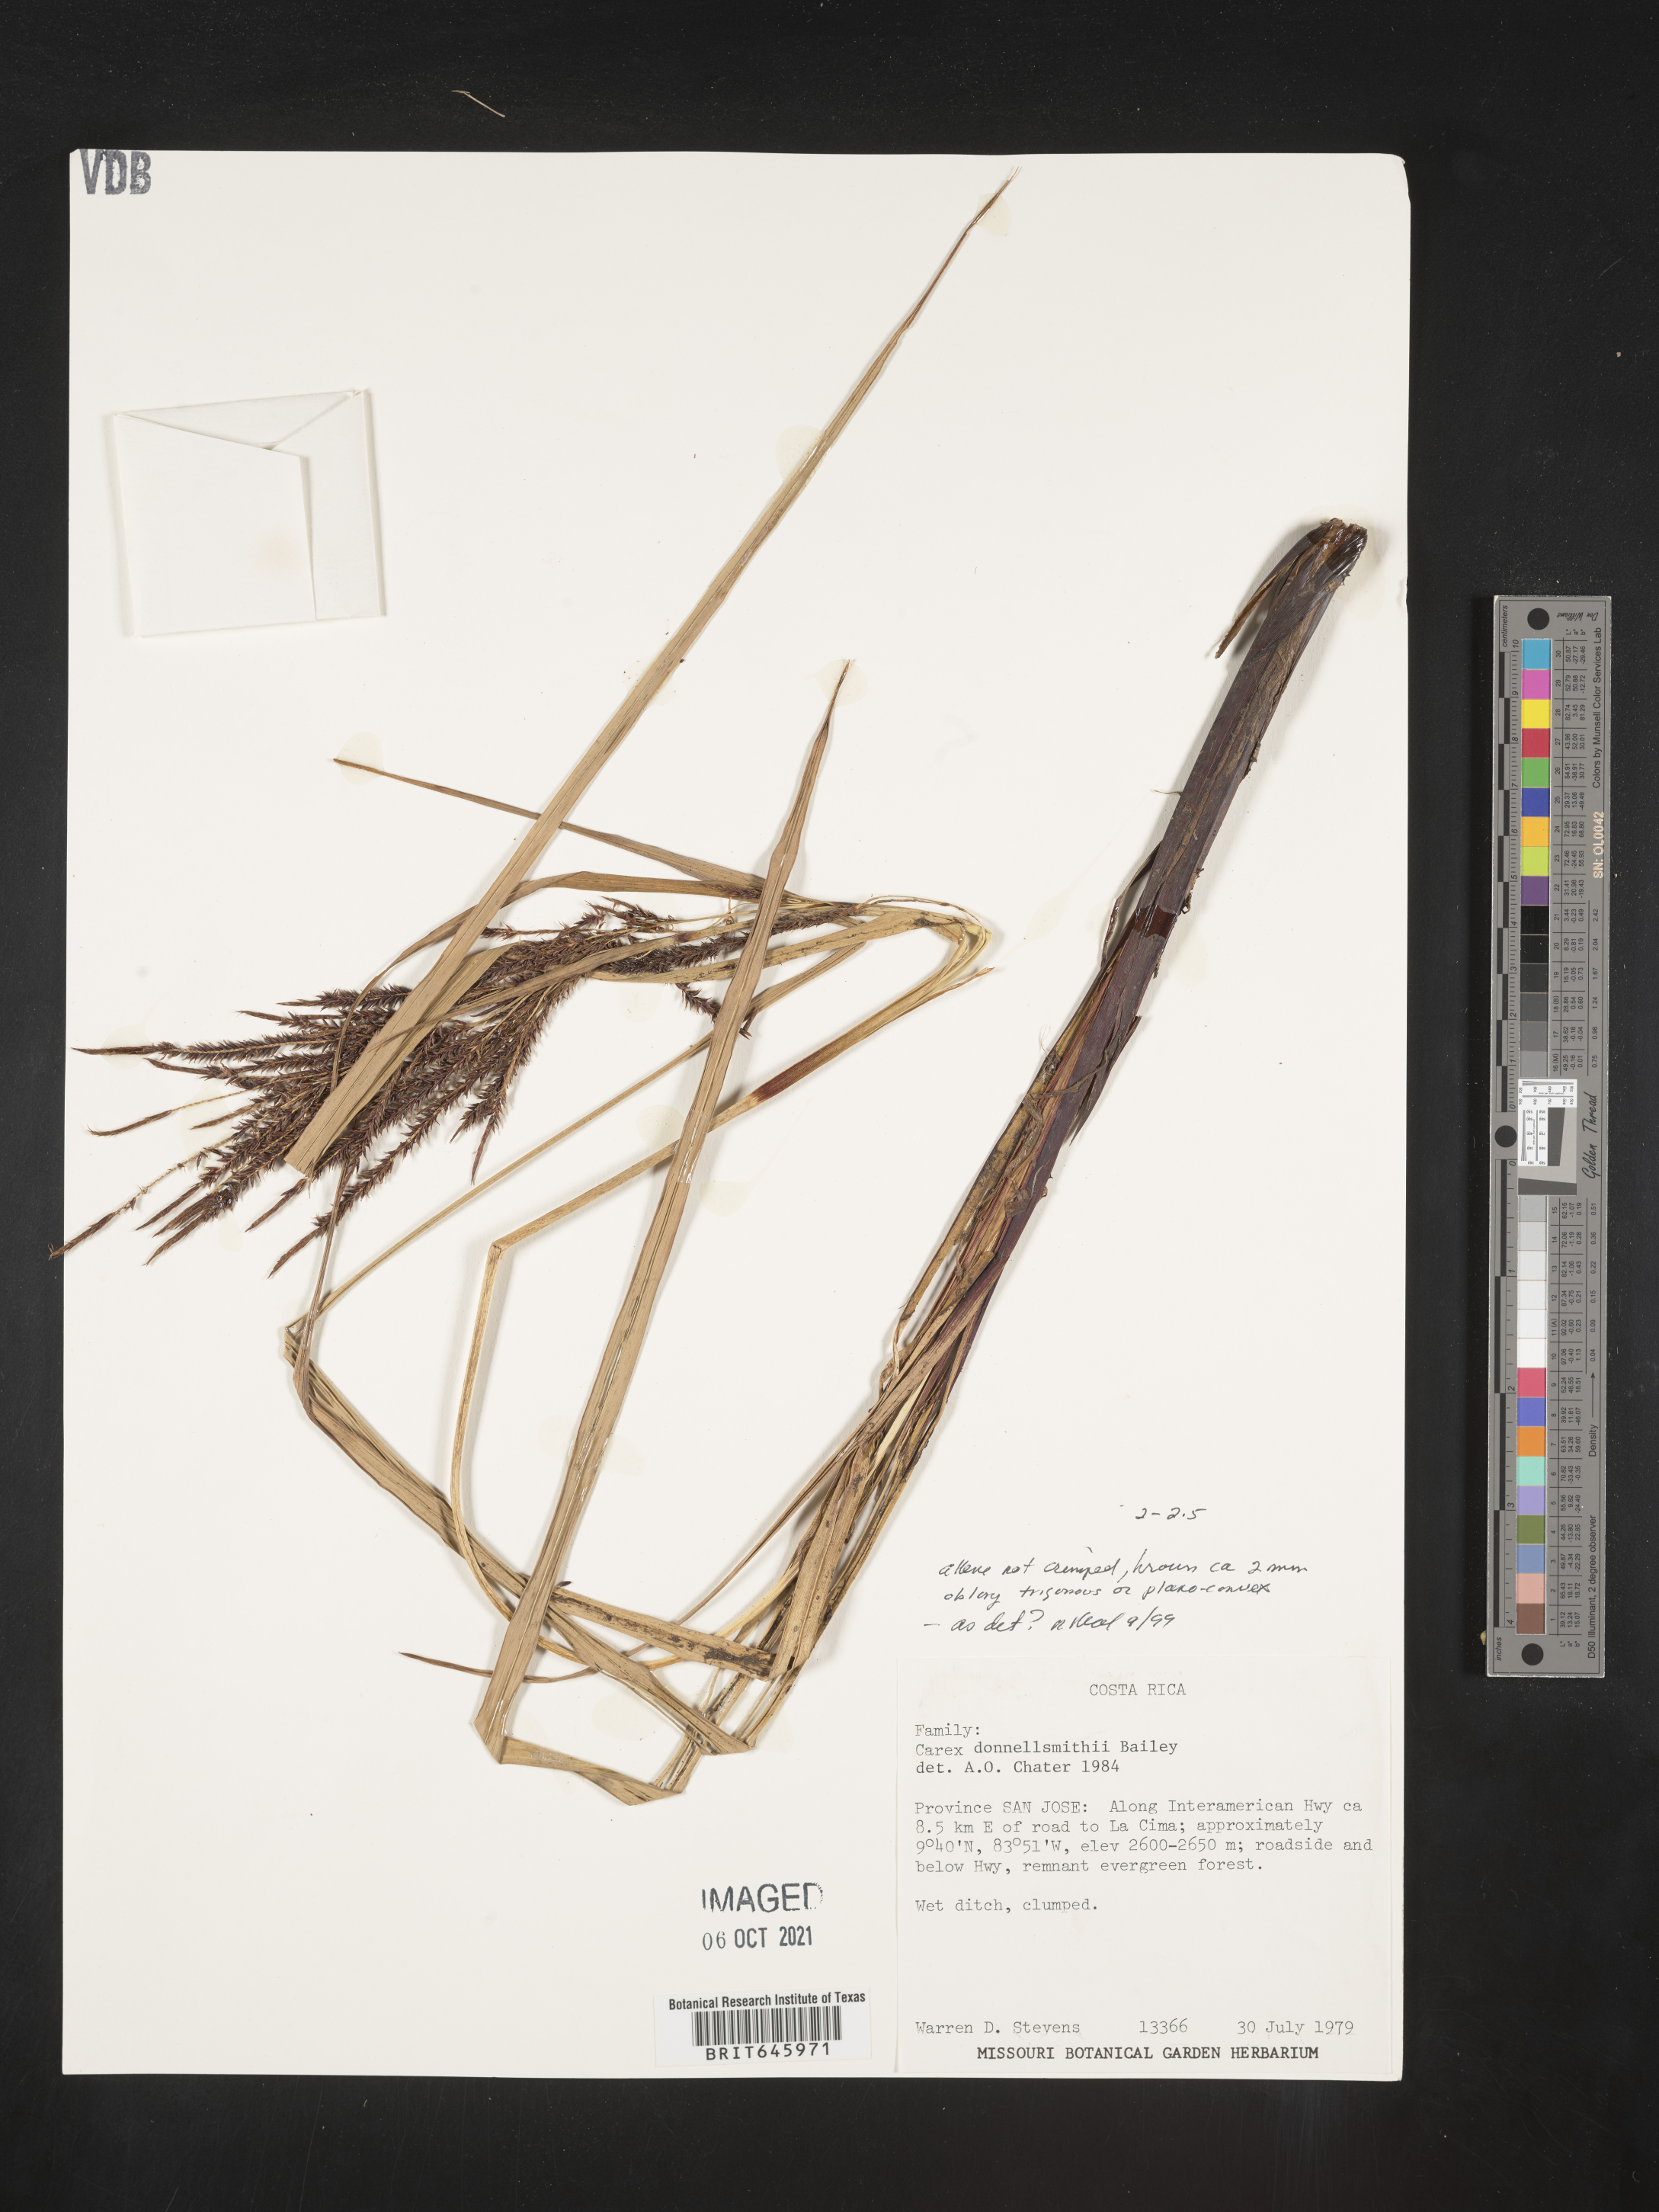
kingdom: Plantae
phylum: Tracheophyta
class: Liliopsida
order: Poales
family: Cyperaceae
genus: Carex
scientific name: Carex donnell-smithii
